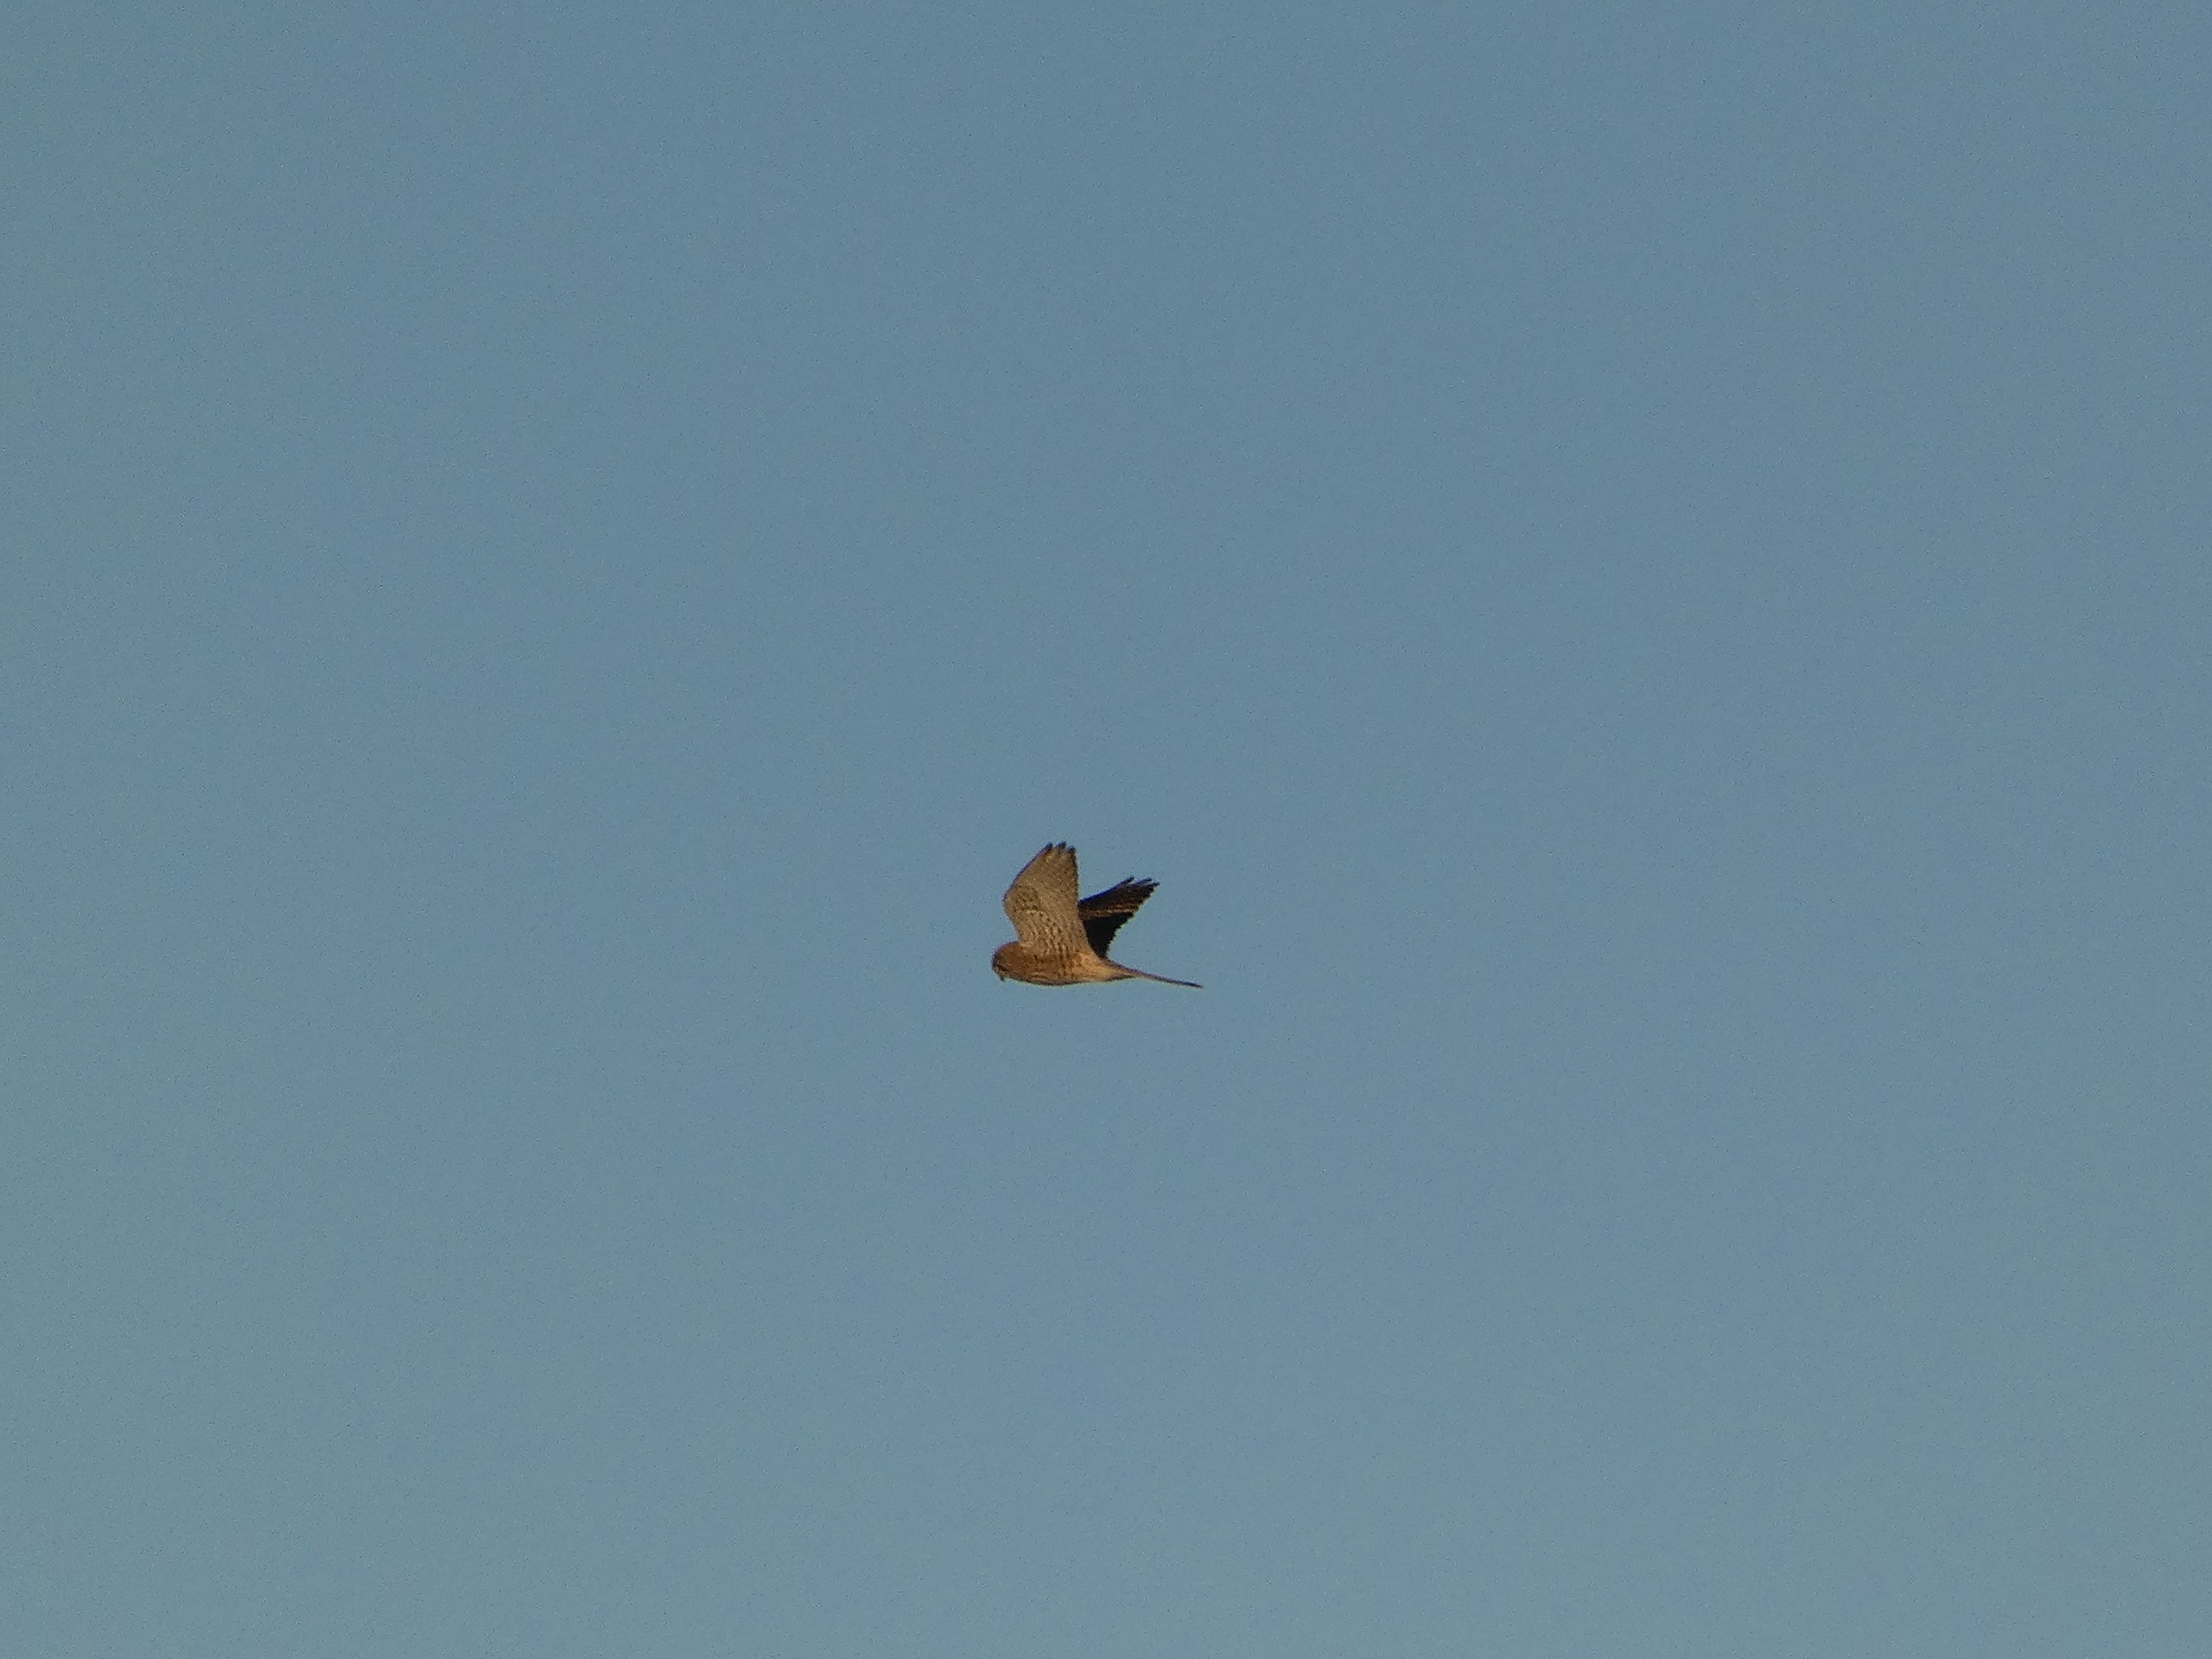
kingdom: Animalia
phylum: Chordata
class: Aves
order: Falconiformes
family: Falconidae
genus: Falco
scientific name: Falco tinnunculus
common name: Tårnfalk
